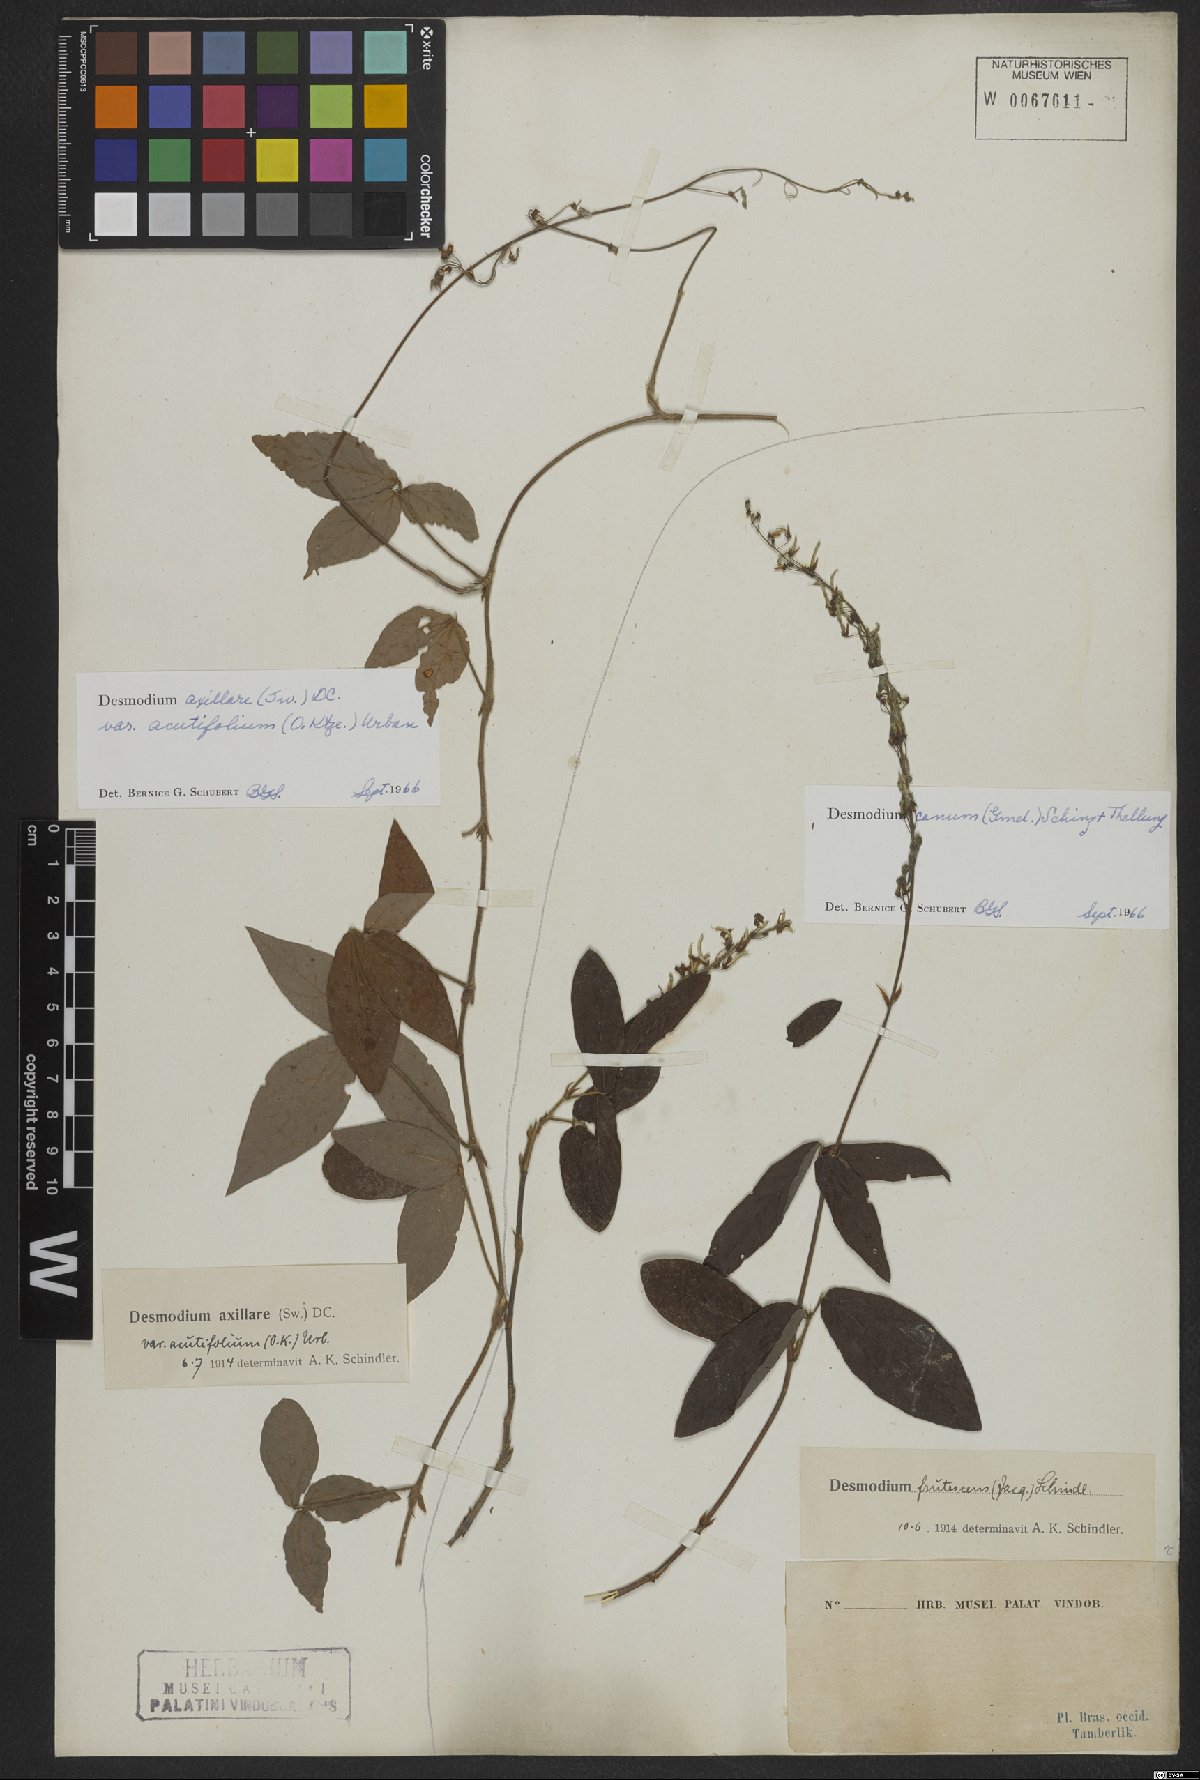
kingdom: Plantae
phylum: Tracheophyta
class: Magnoliopsida
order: Fabales
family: Fabaceae
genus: Desmodium
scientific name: Desmodium axillare
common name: Wire with
